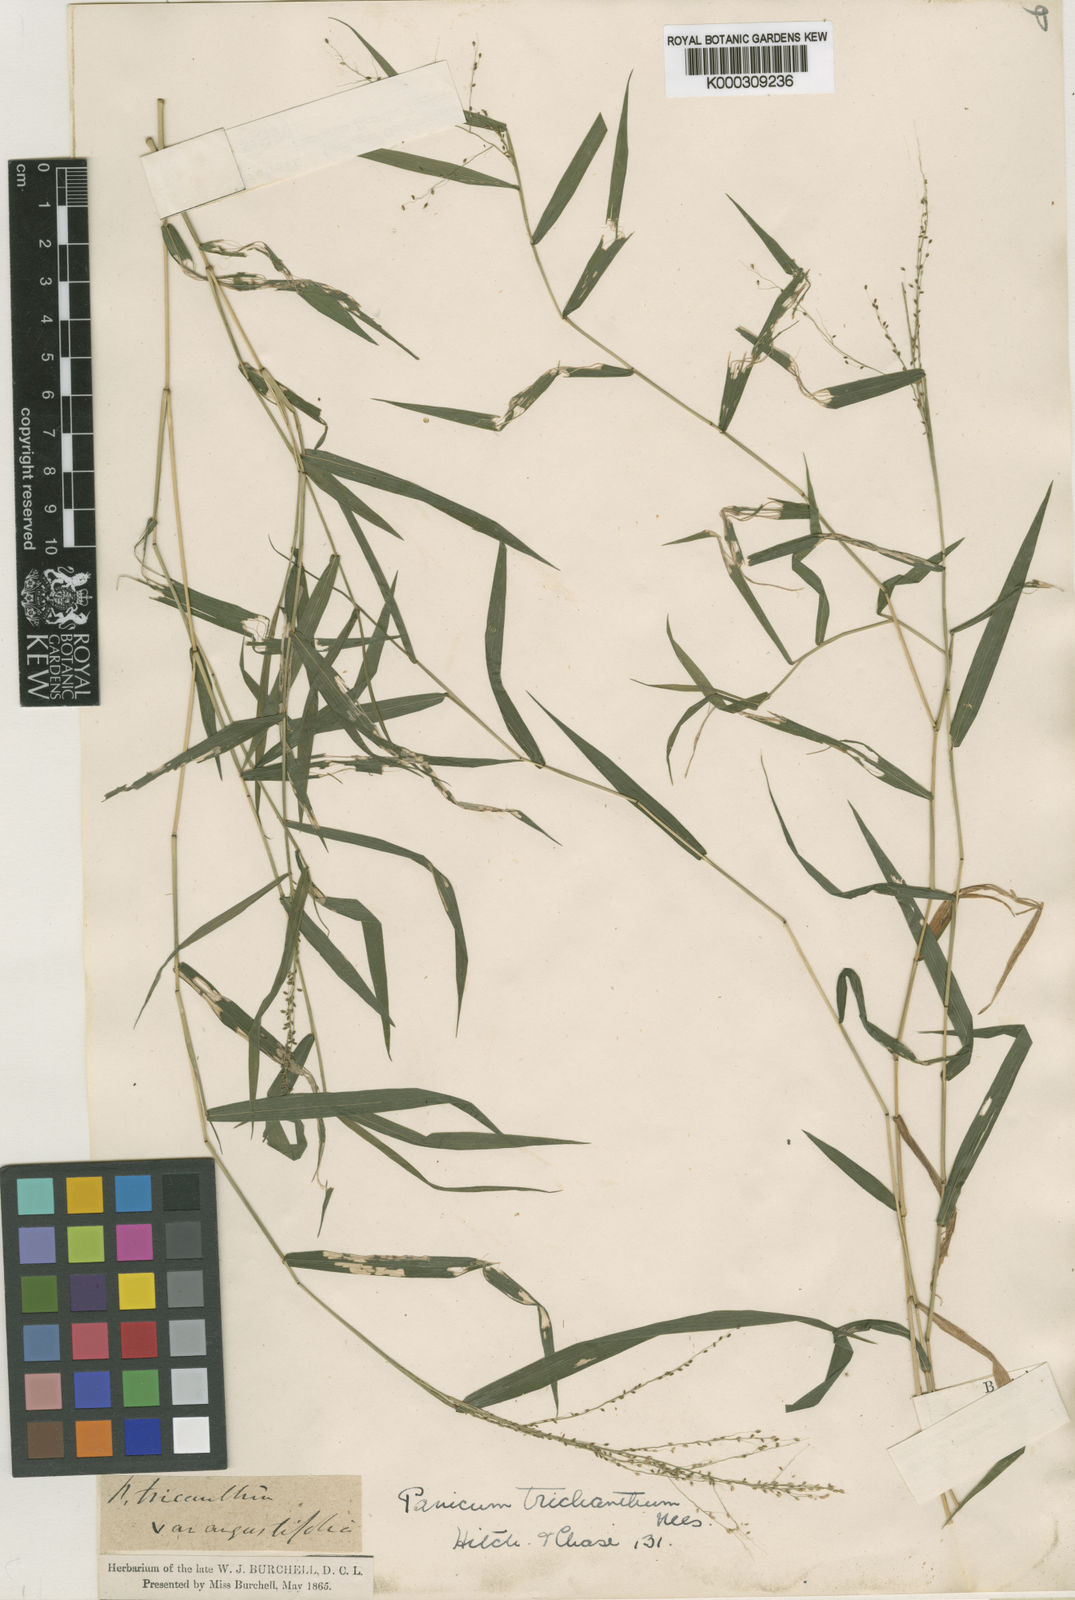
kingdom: Plantae
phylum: Tracheophyta
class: Liliopsida
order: Poales
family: Poaceae
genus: Panicum
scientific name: Panicum trichanthum
